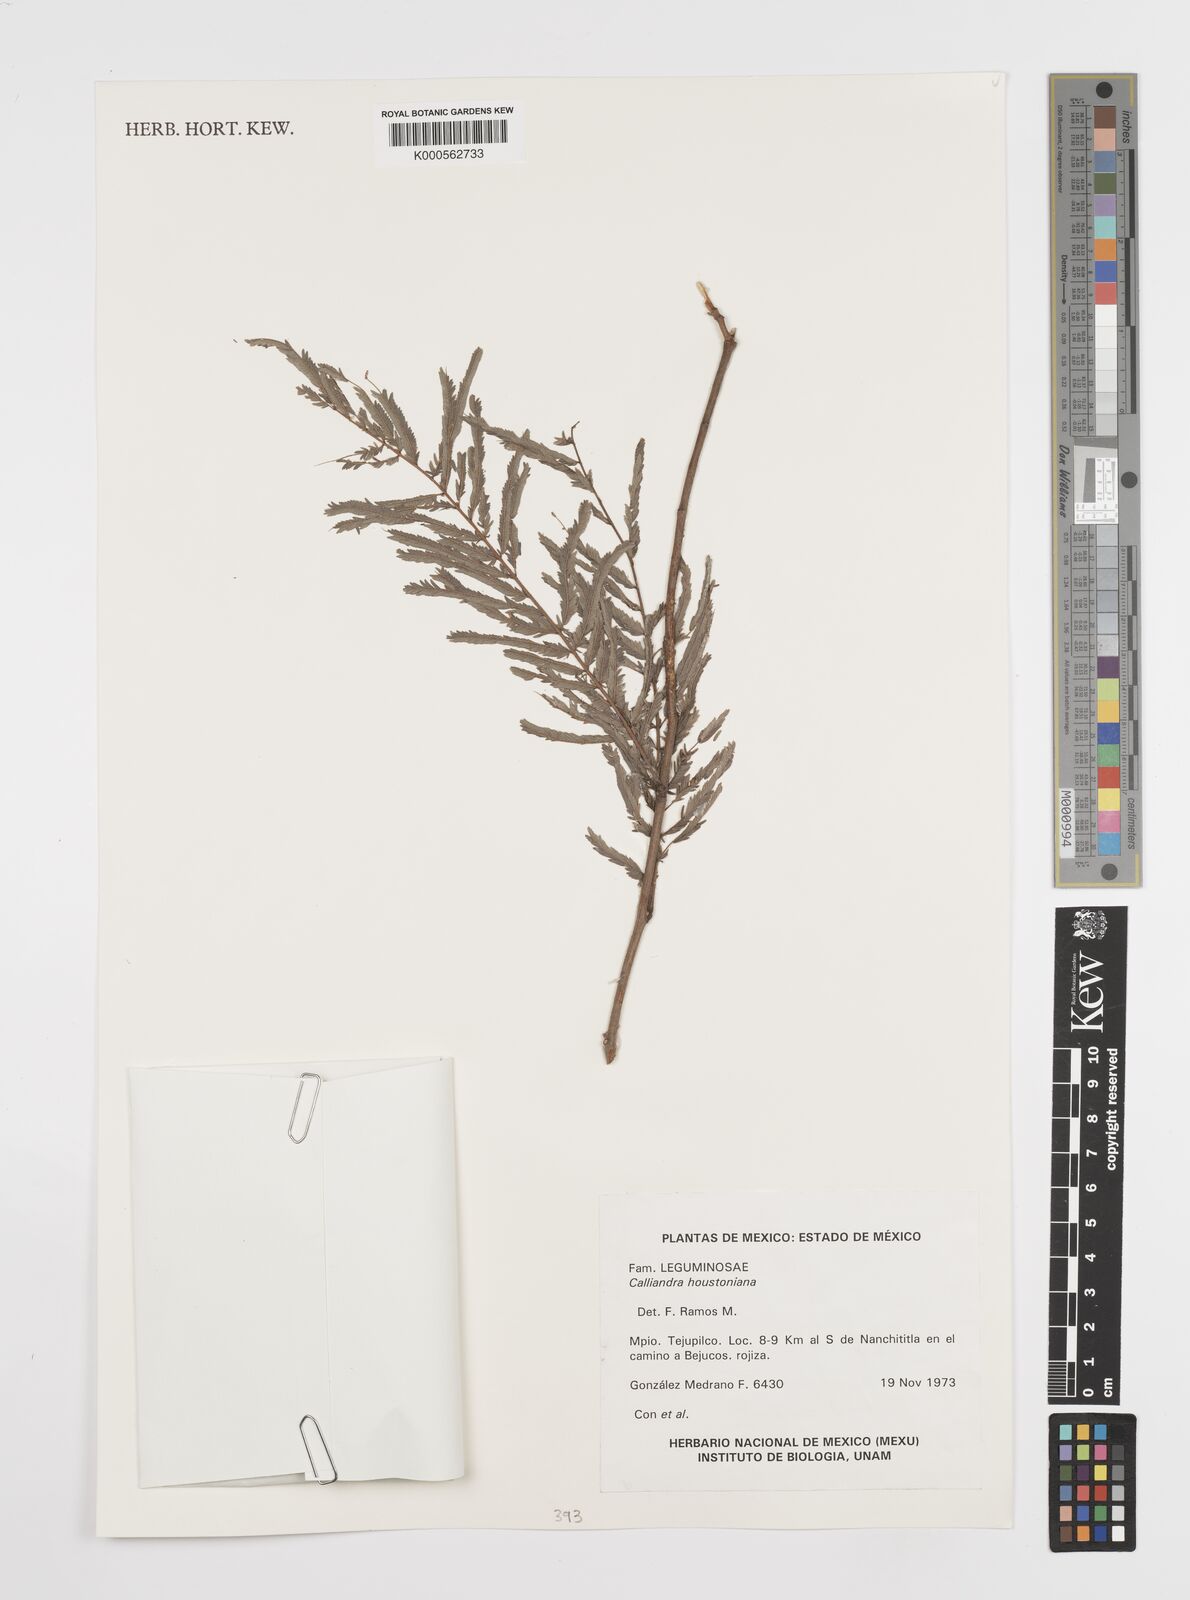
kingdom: Plantae
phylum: Tracheophyta
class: Magnoliopsida
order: Fabales
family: Fabaceae
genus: Calliandra
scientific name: Calliandra houstoniana
